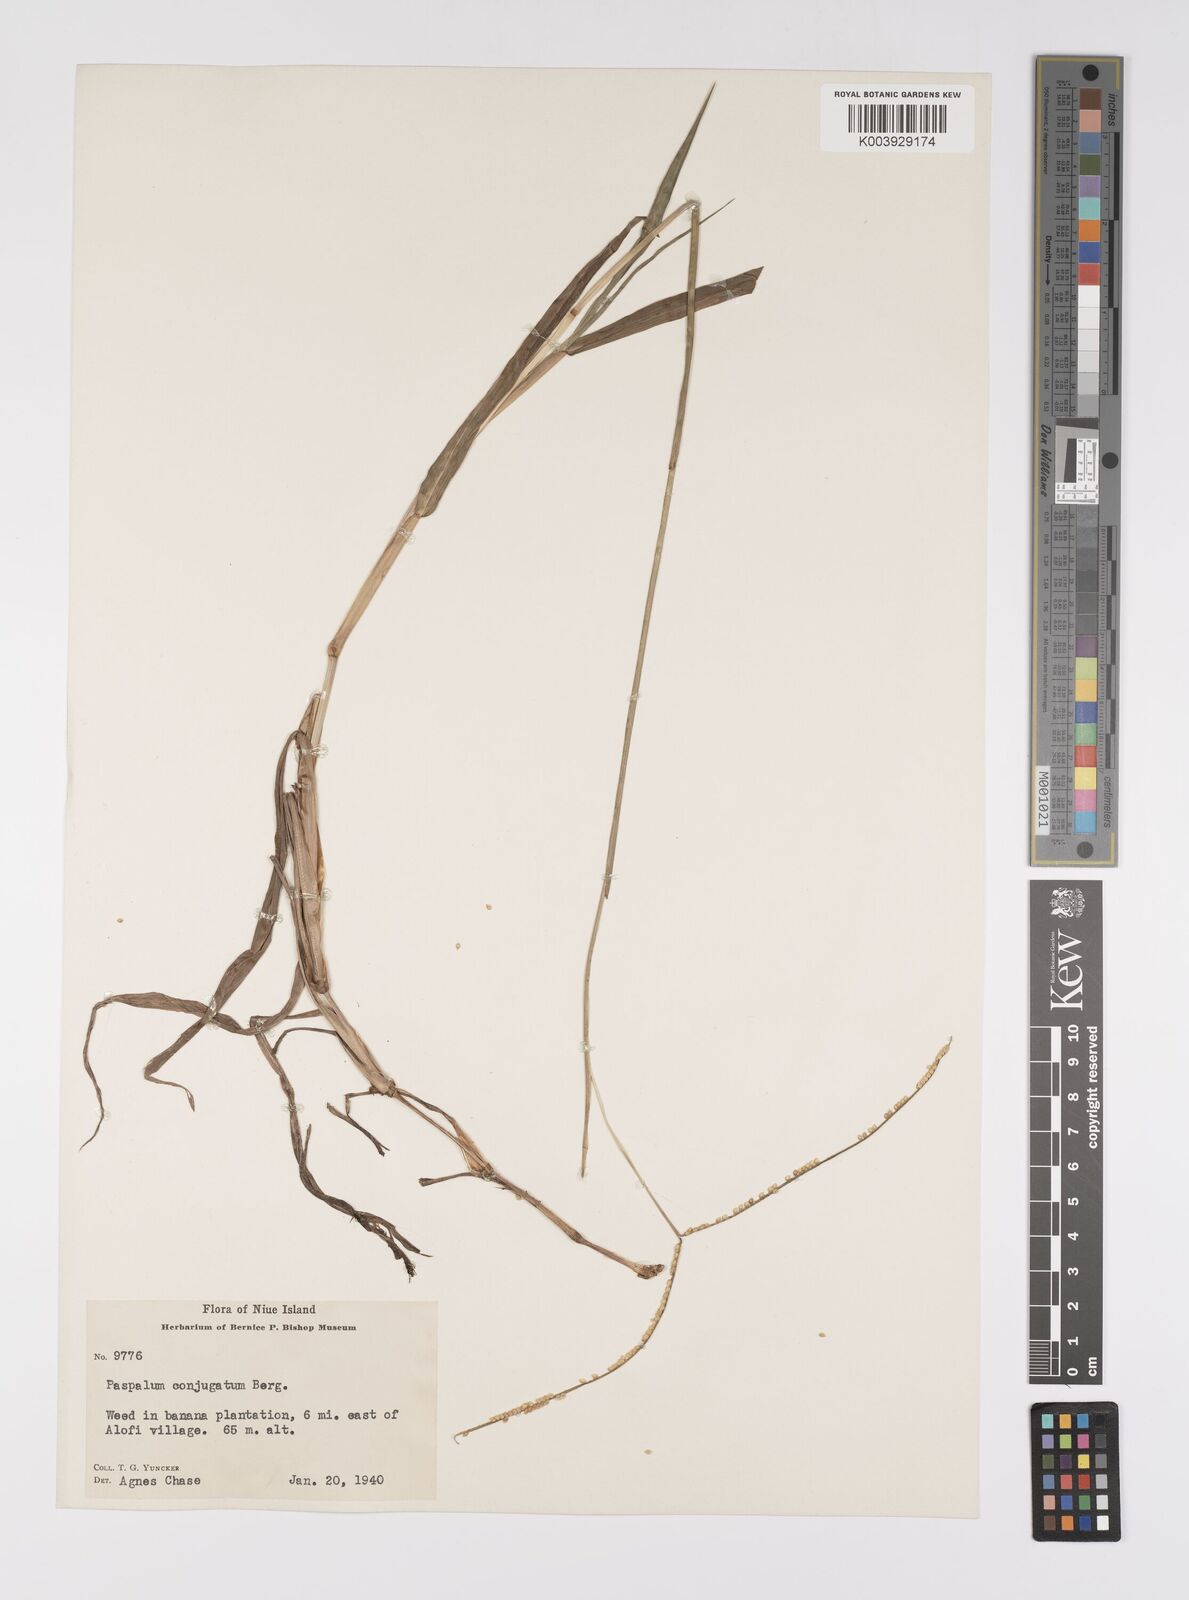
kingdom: Plantae
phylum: Tracheophyta
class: Liliopsida
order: Poales
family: Poaceae
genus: Paspalum
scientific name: Paspalum conjugatum
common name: Hilograss
